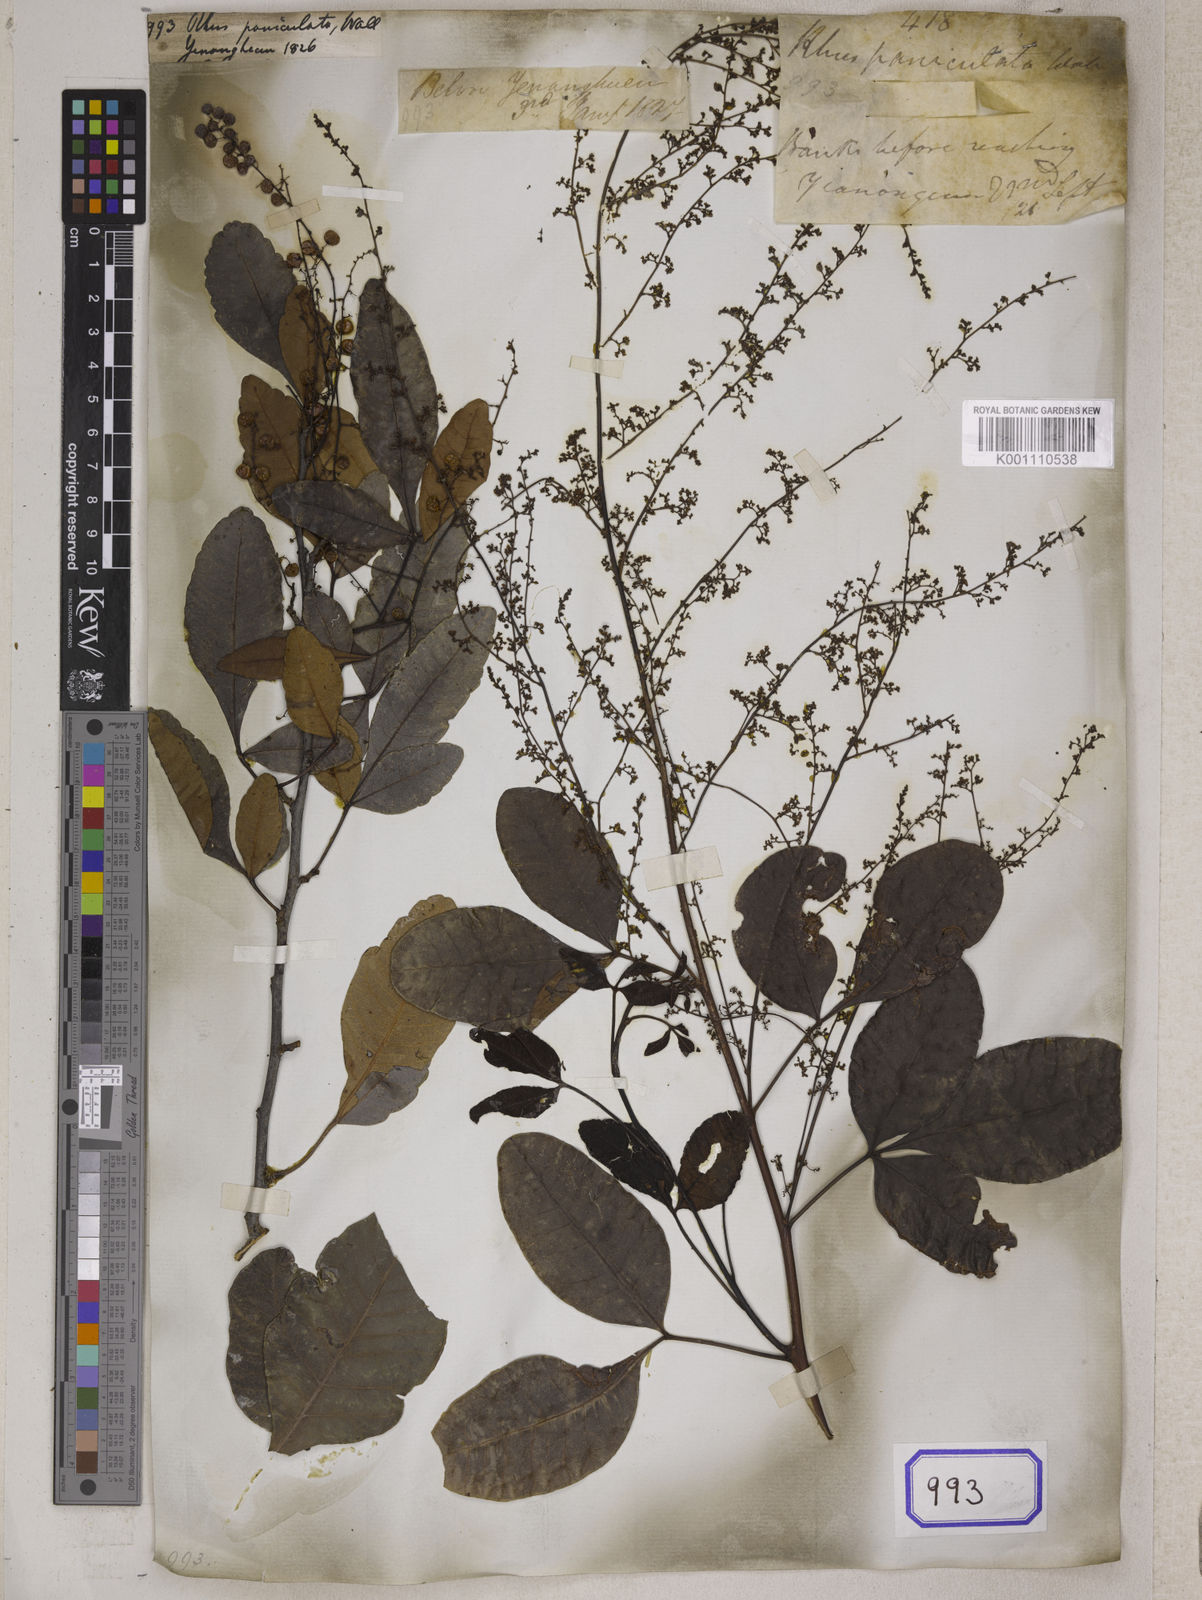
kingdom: Plantae
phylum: Tracheophyta
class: Magnoliopsida
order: Sapindales
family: Anacardiaceae
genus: Rhus
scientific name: Rhus
